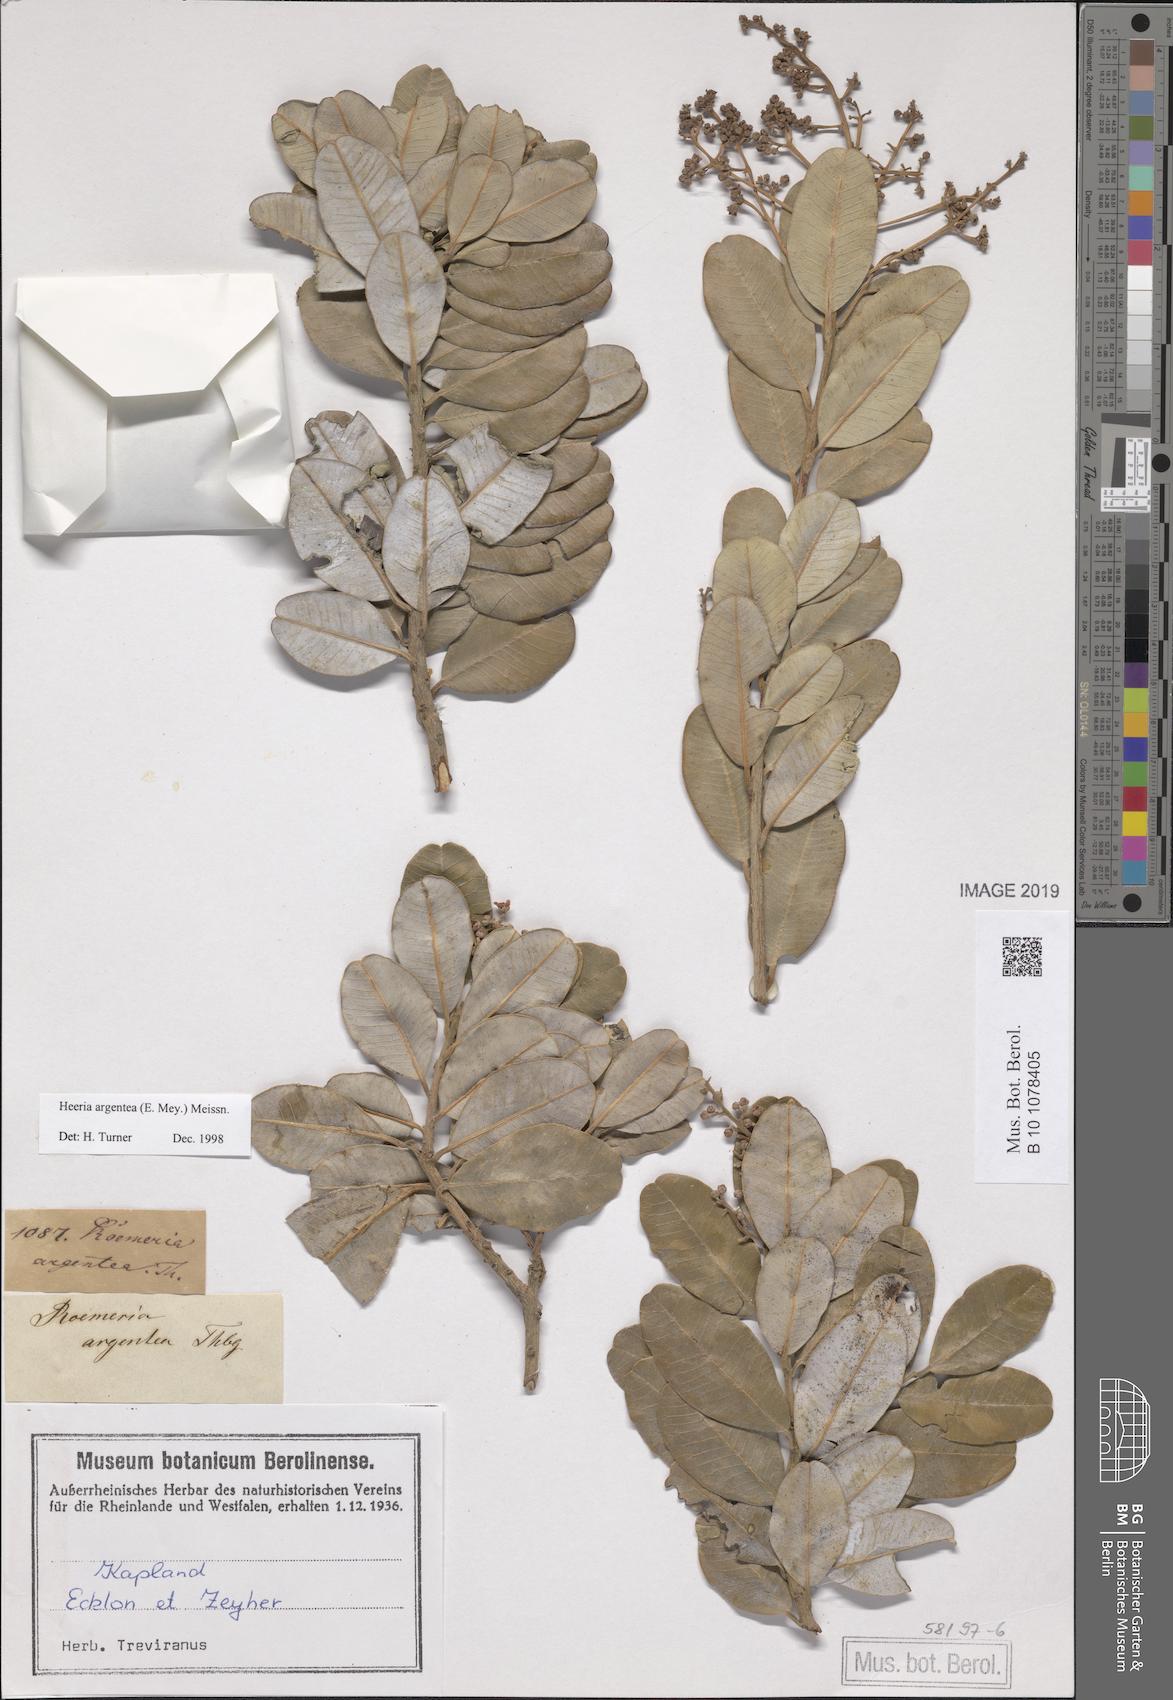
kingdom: Plantae
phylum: Tracheophyta
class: Magnoliopsida
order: Sapindales
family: Anacardiaceae
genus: Heeria
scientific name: Heeria argentea
